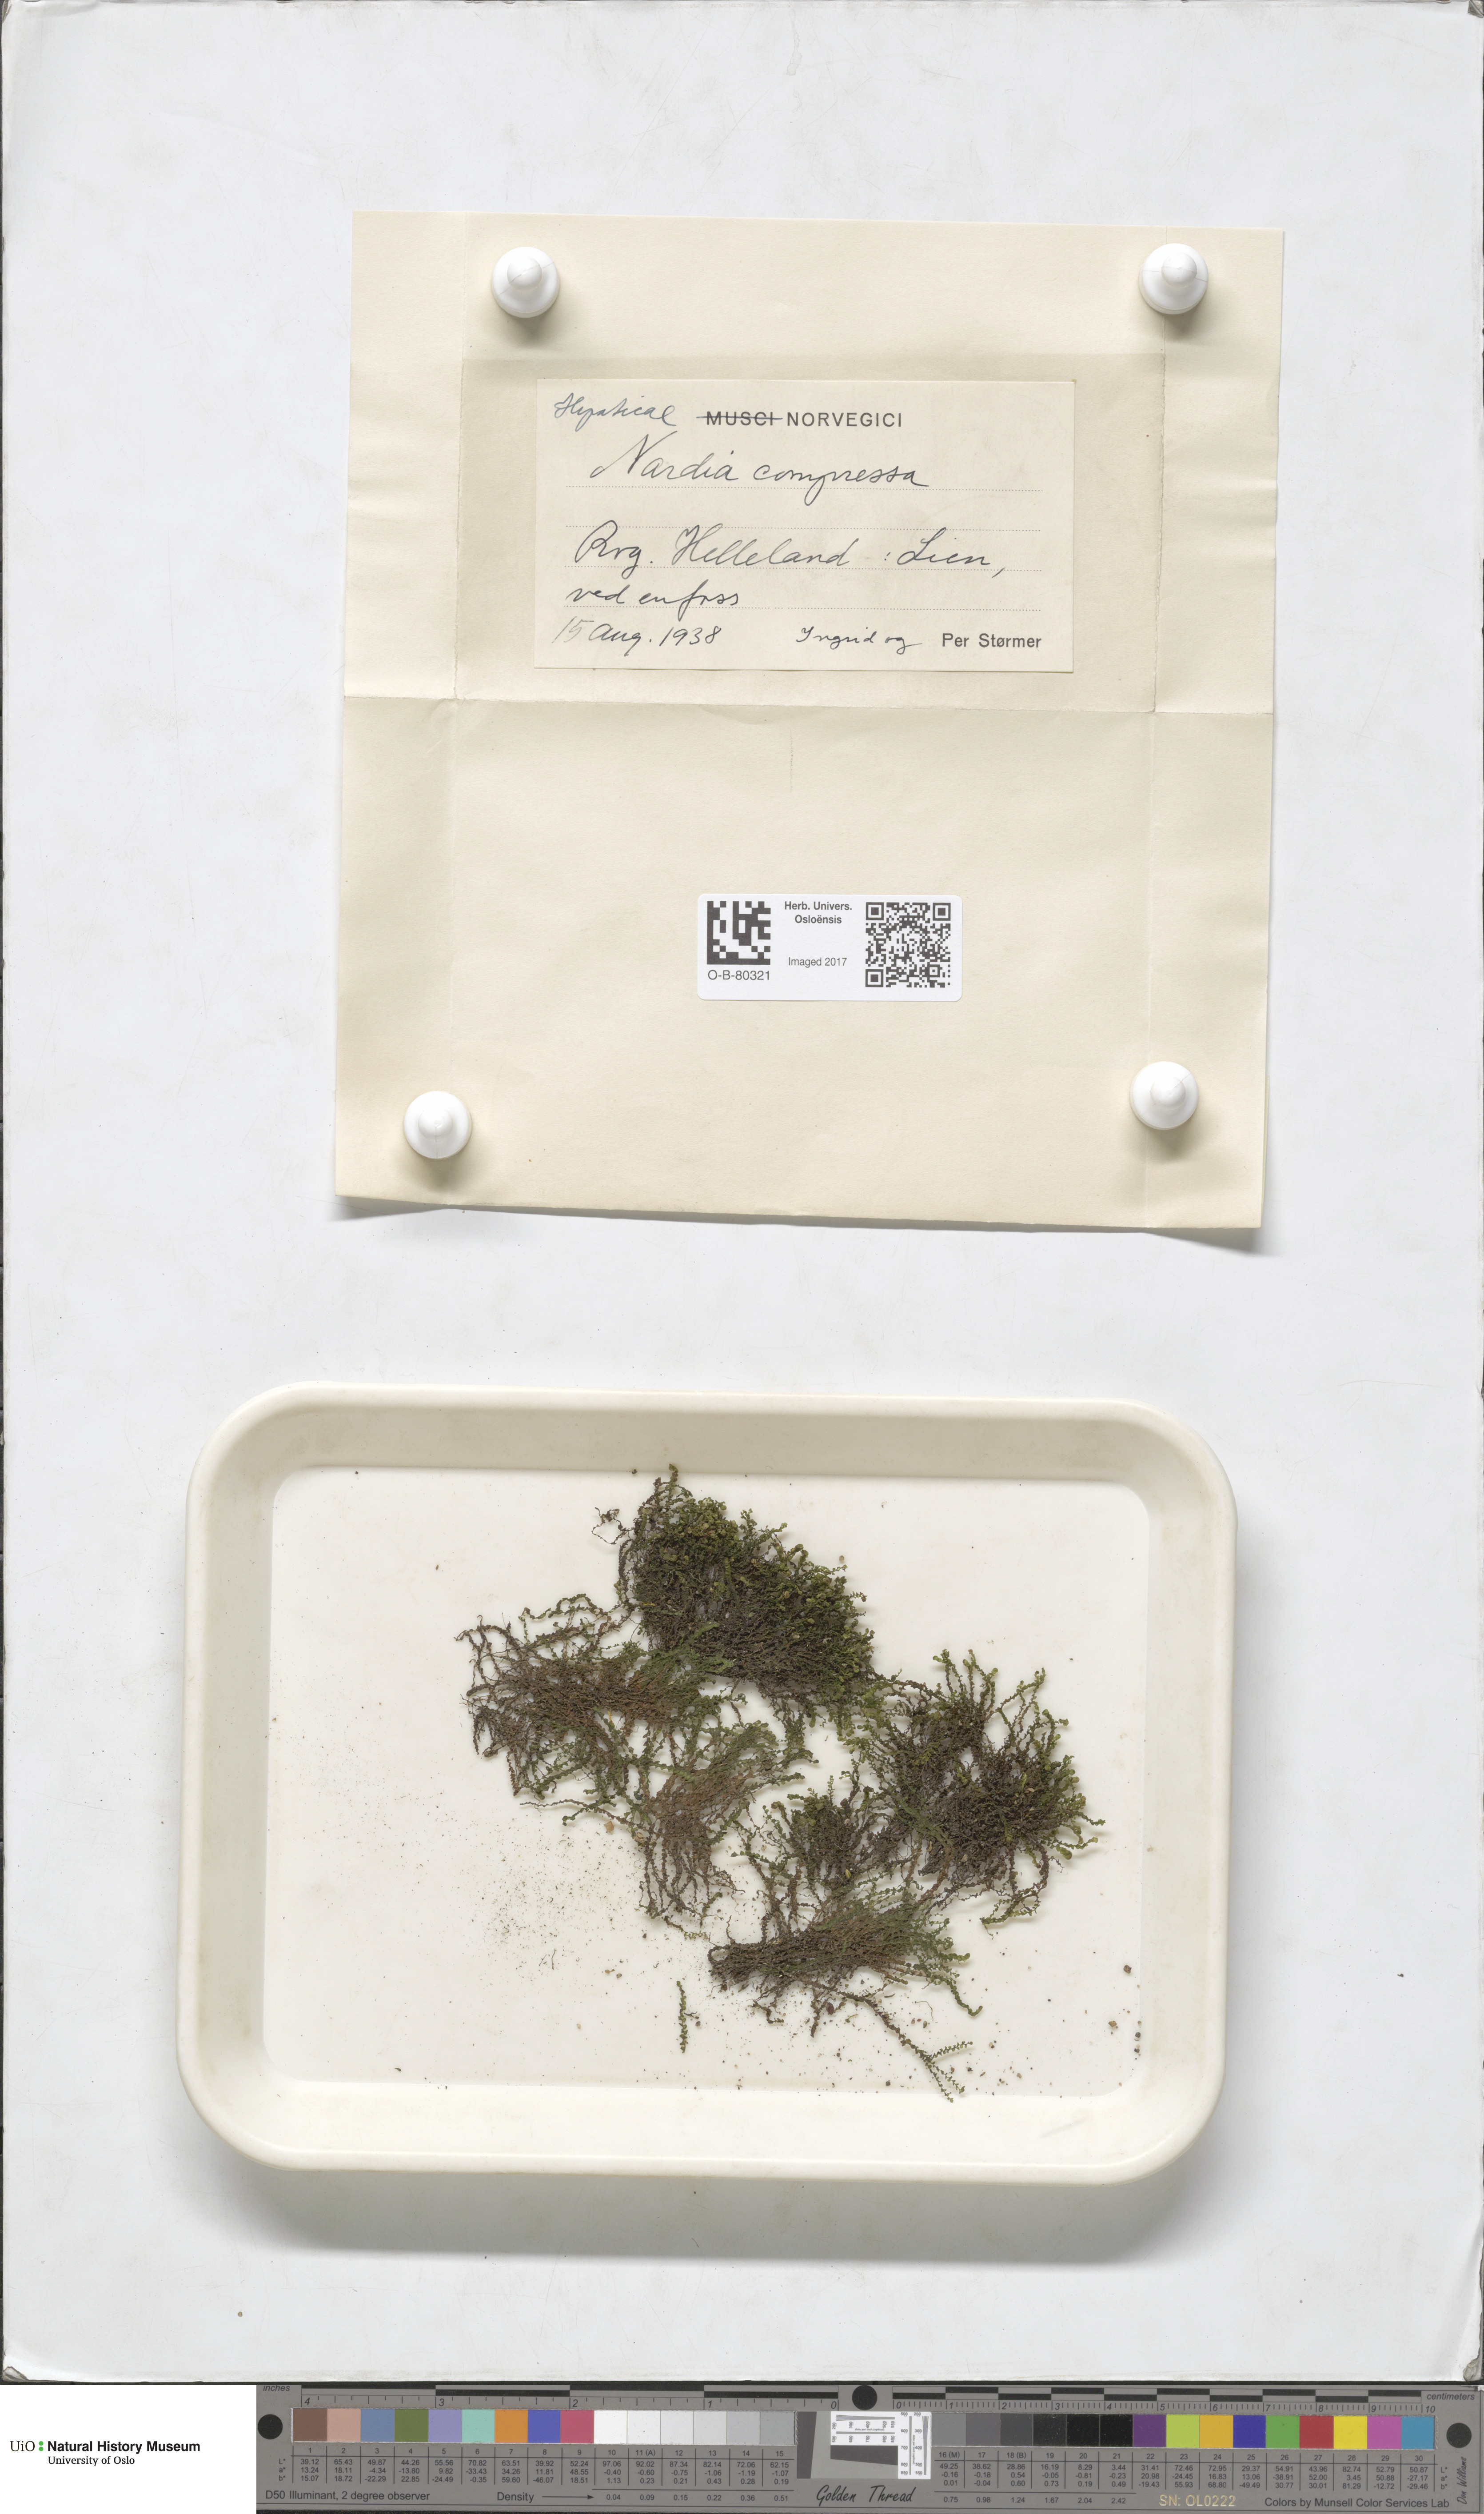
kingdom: Plantae
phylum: Marchantiophyta
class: Jungermanniopsida
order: Jungermanniales
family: Gymnomitriaceae
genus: Nardia
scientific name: Nardia compressa
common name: Compressed flapwort
